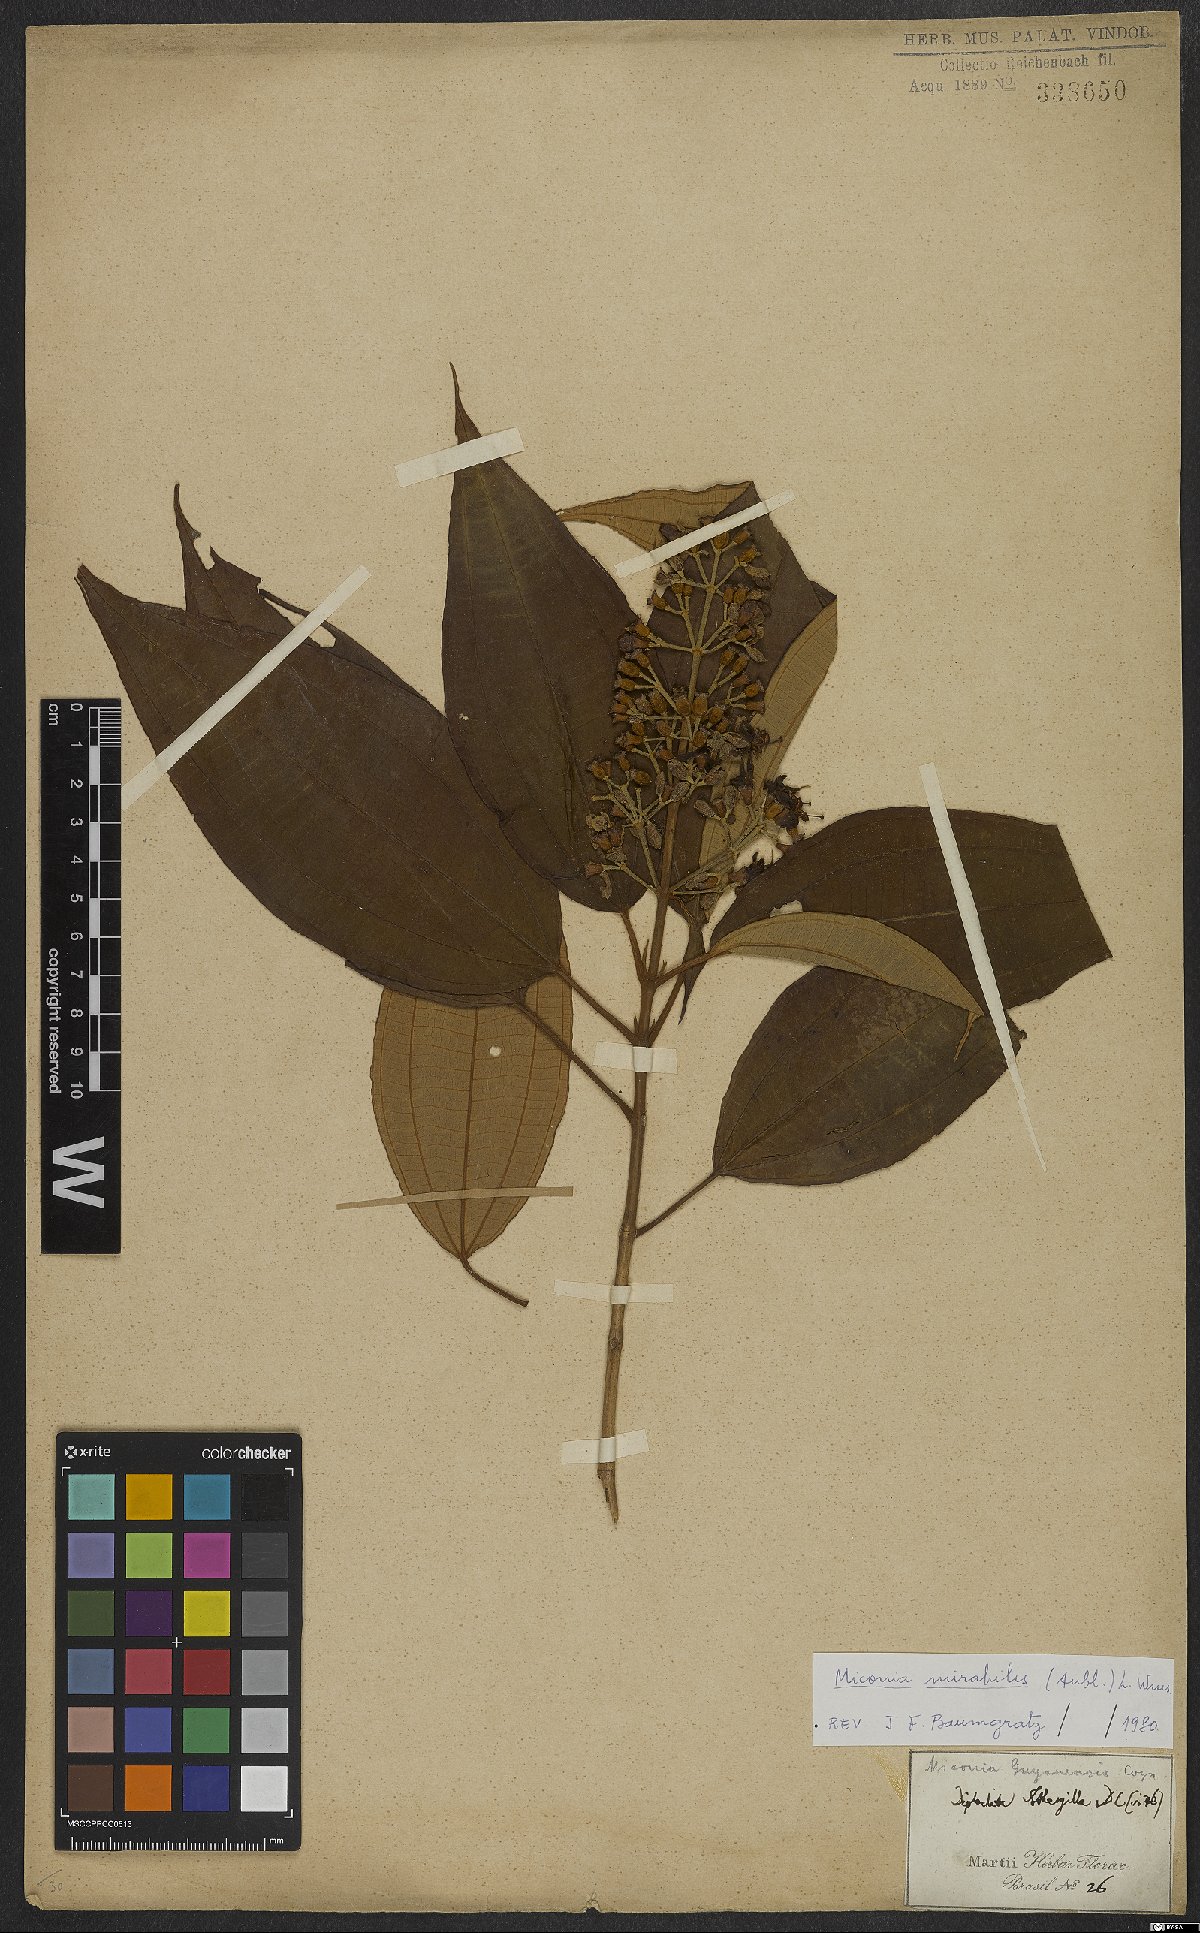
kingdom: Plantae
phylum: Tracheophyta
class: Magnoliopsida
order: Myrtales
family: Melastomataceae
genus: Miconia
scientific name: Miconia mirabilis
